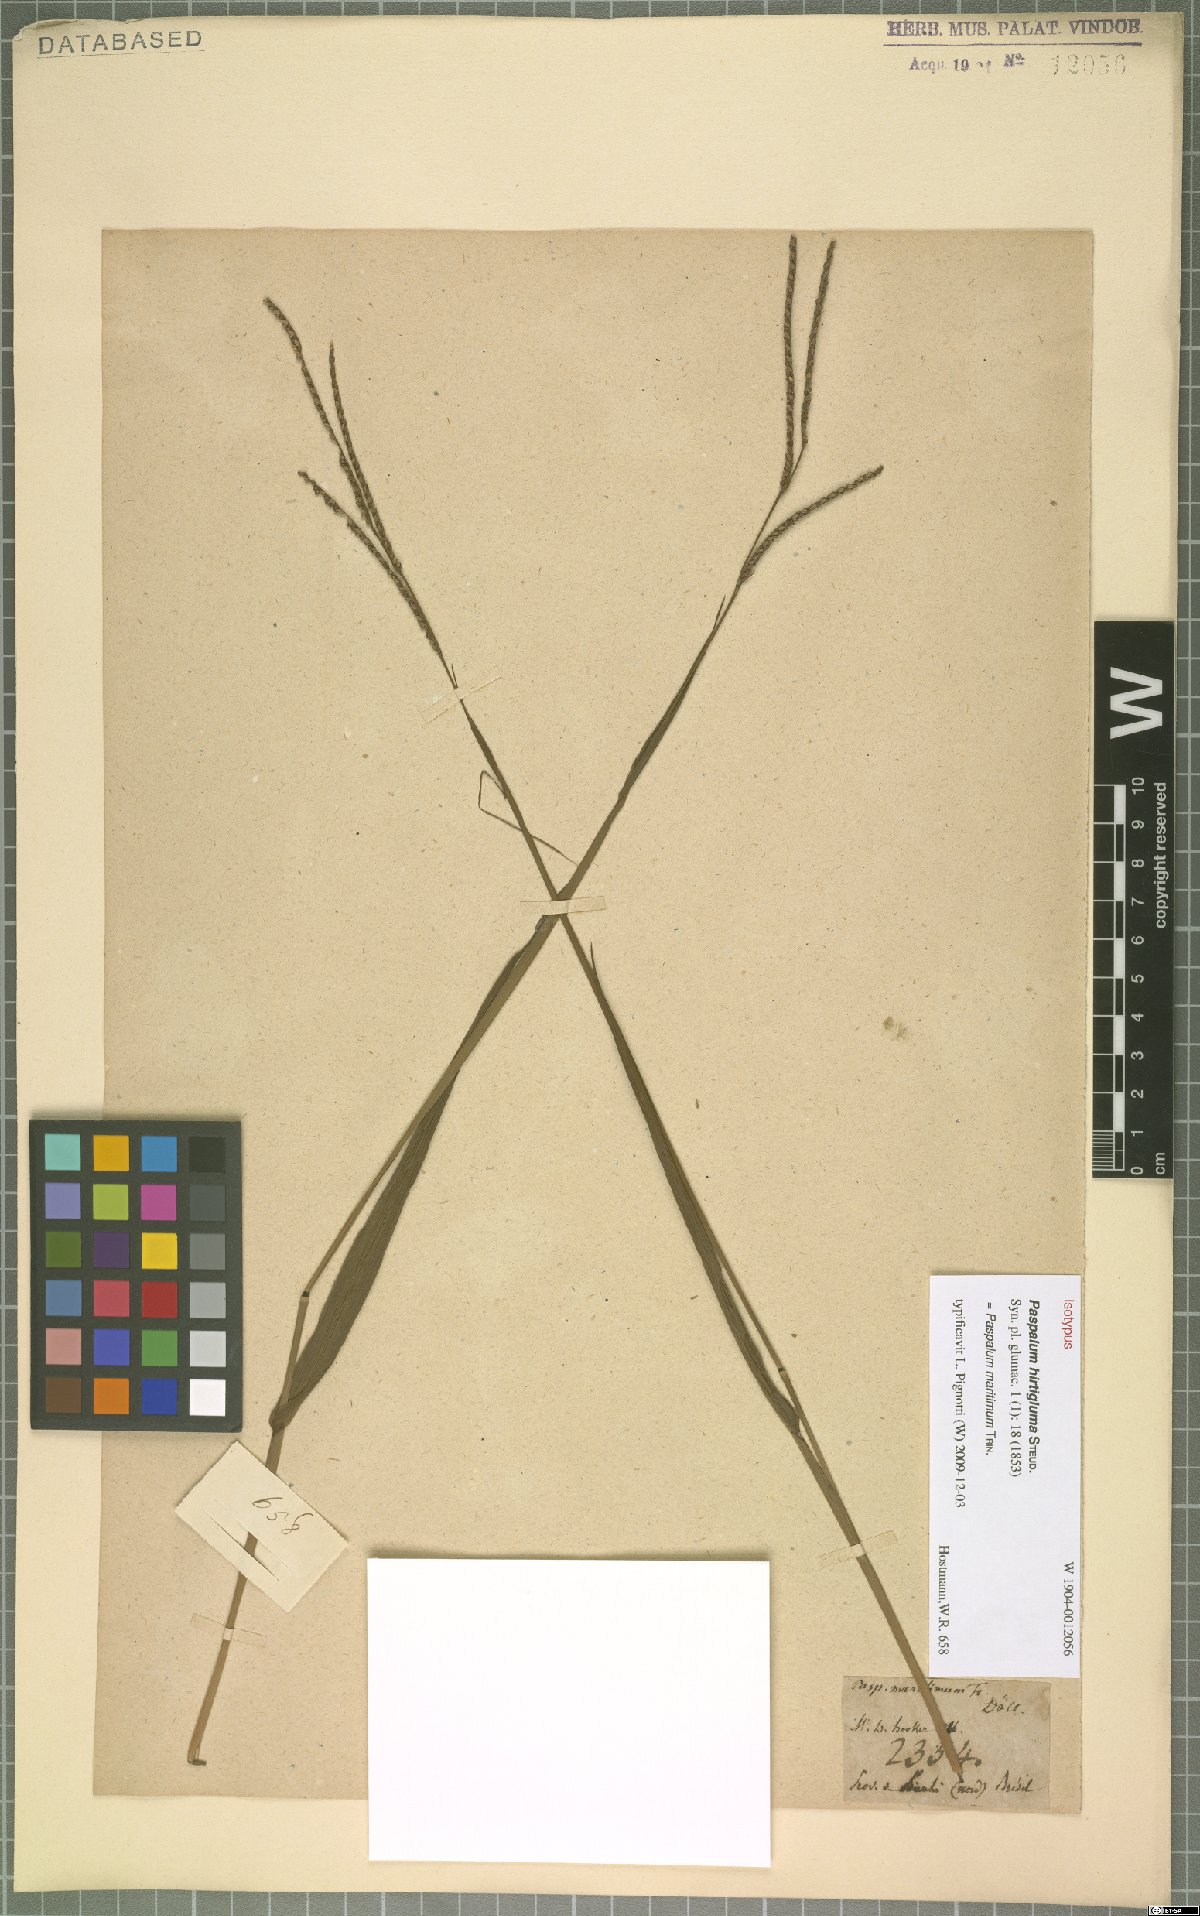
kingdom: Plantae
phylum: Tracheophyta
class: Liliopsida
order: Poales
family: Poaceae
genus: Paspalum
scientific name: Paspalum maritimum
